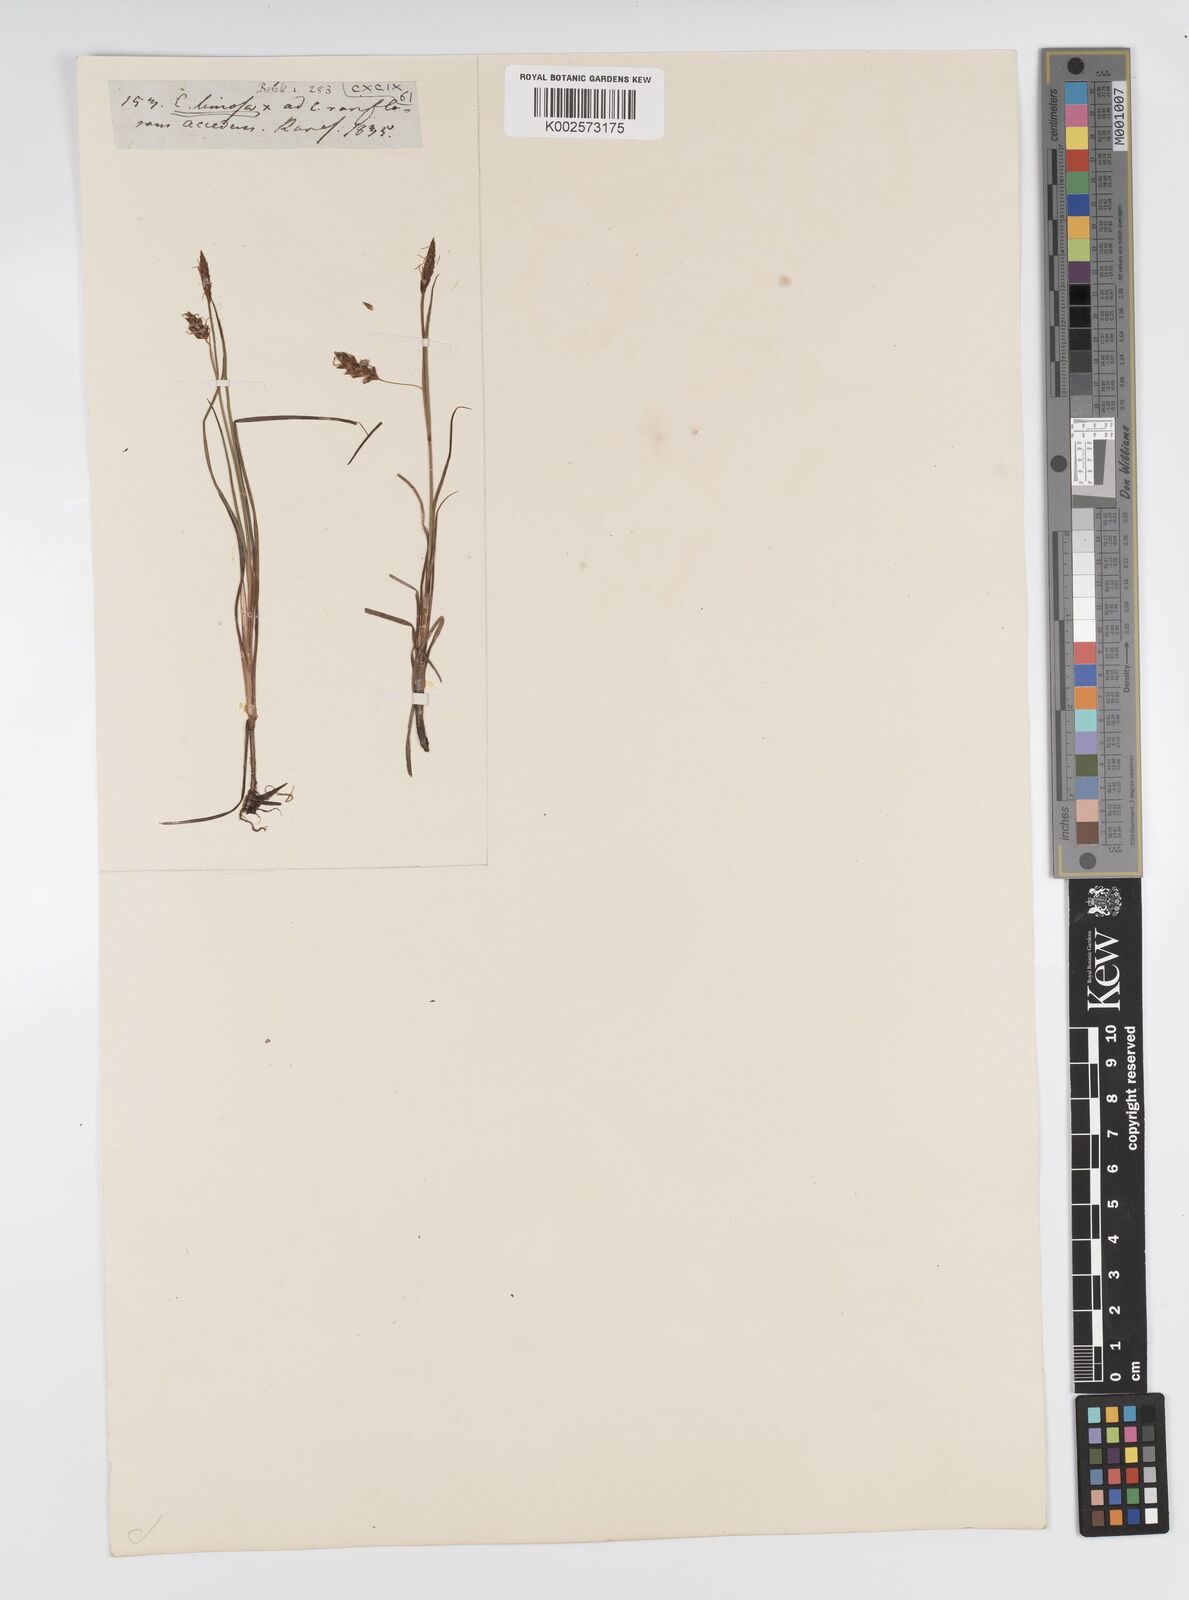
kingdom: Plantae
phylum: Tracheophyta
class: Liliopsida
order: Poales
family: Cyperaceae
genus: Carex
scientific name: Carex limosa
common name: Bog sedge
